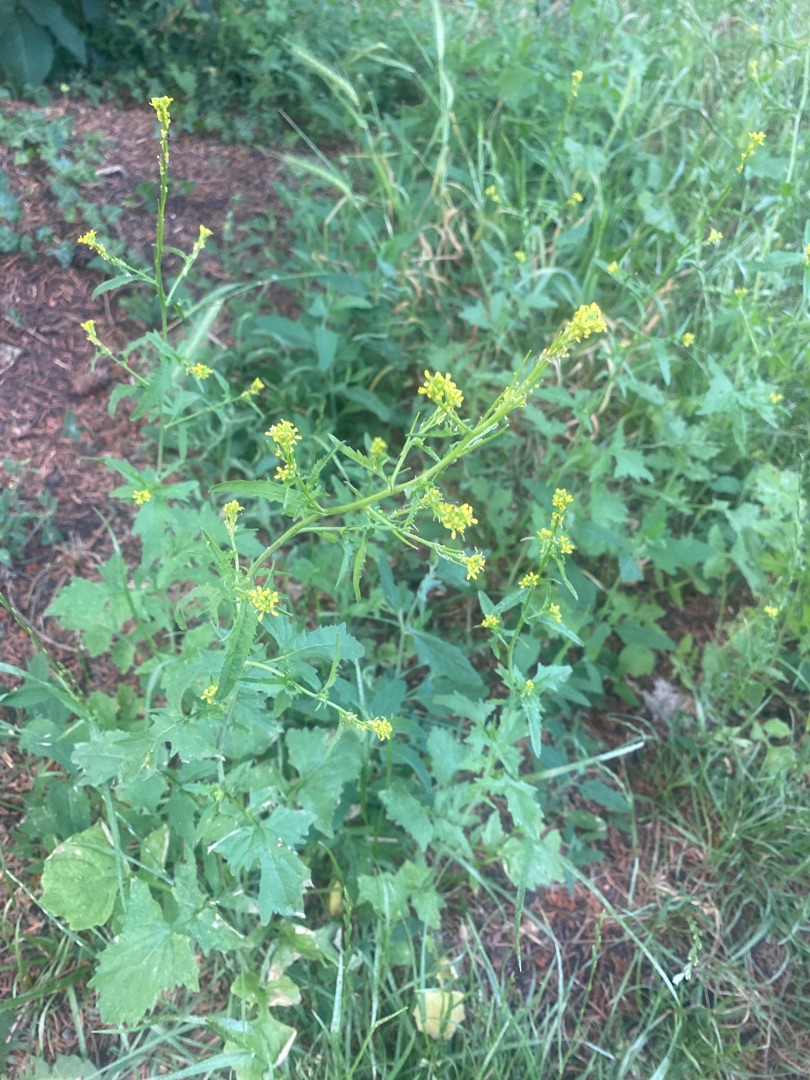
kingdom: Plantae
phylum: Tracheophyta
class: Magnoliopsida
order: Brassicales
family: Brassicaceae
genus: Sisymbrium
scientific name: Sisymbrium officinale
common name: Rank vejsennep
